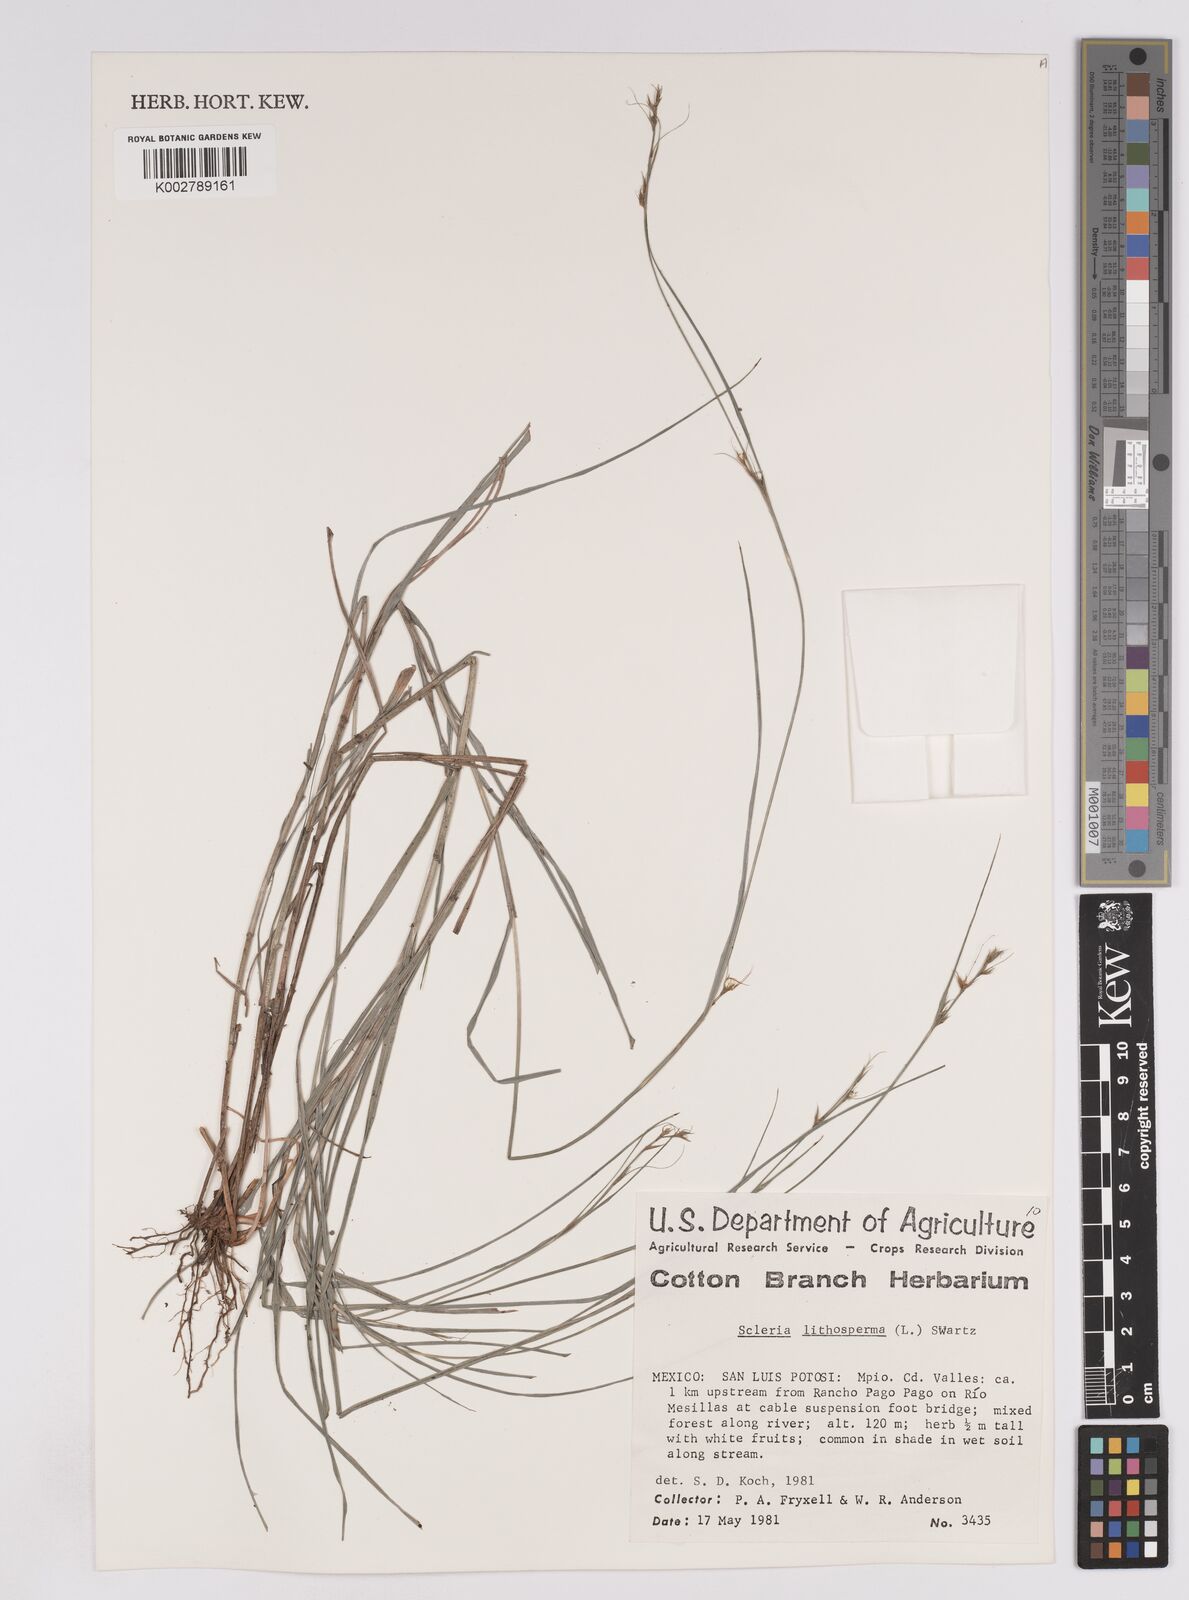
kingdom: Plantae
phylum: Tracheophyta
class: Liliopsida
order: Poales
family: Cyperaceae
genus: Scleria
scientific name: Scleria lithosperma
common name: Florida keys nut-rush
